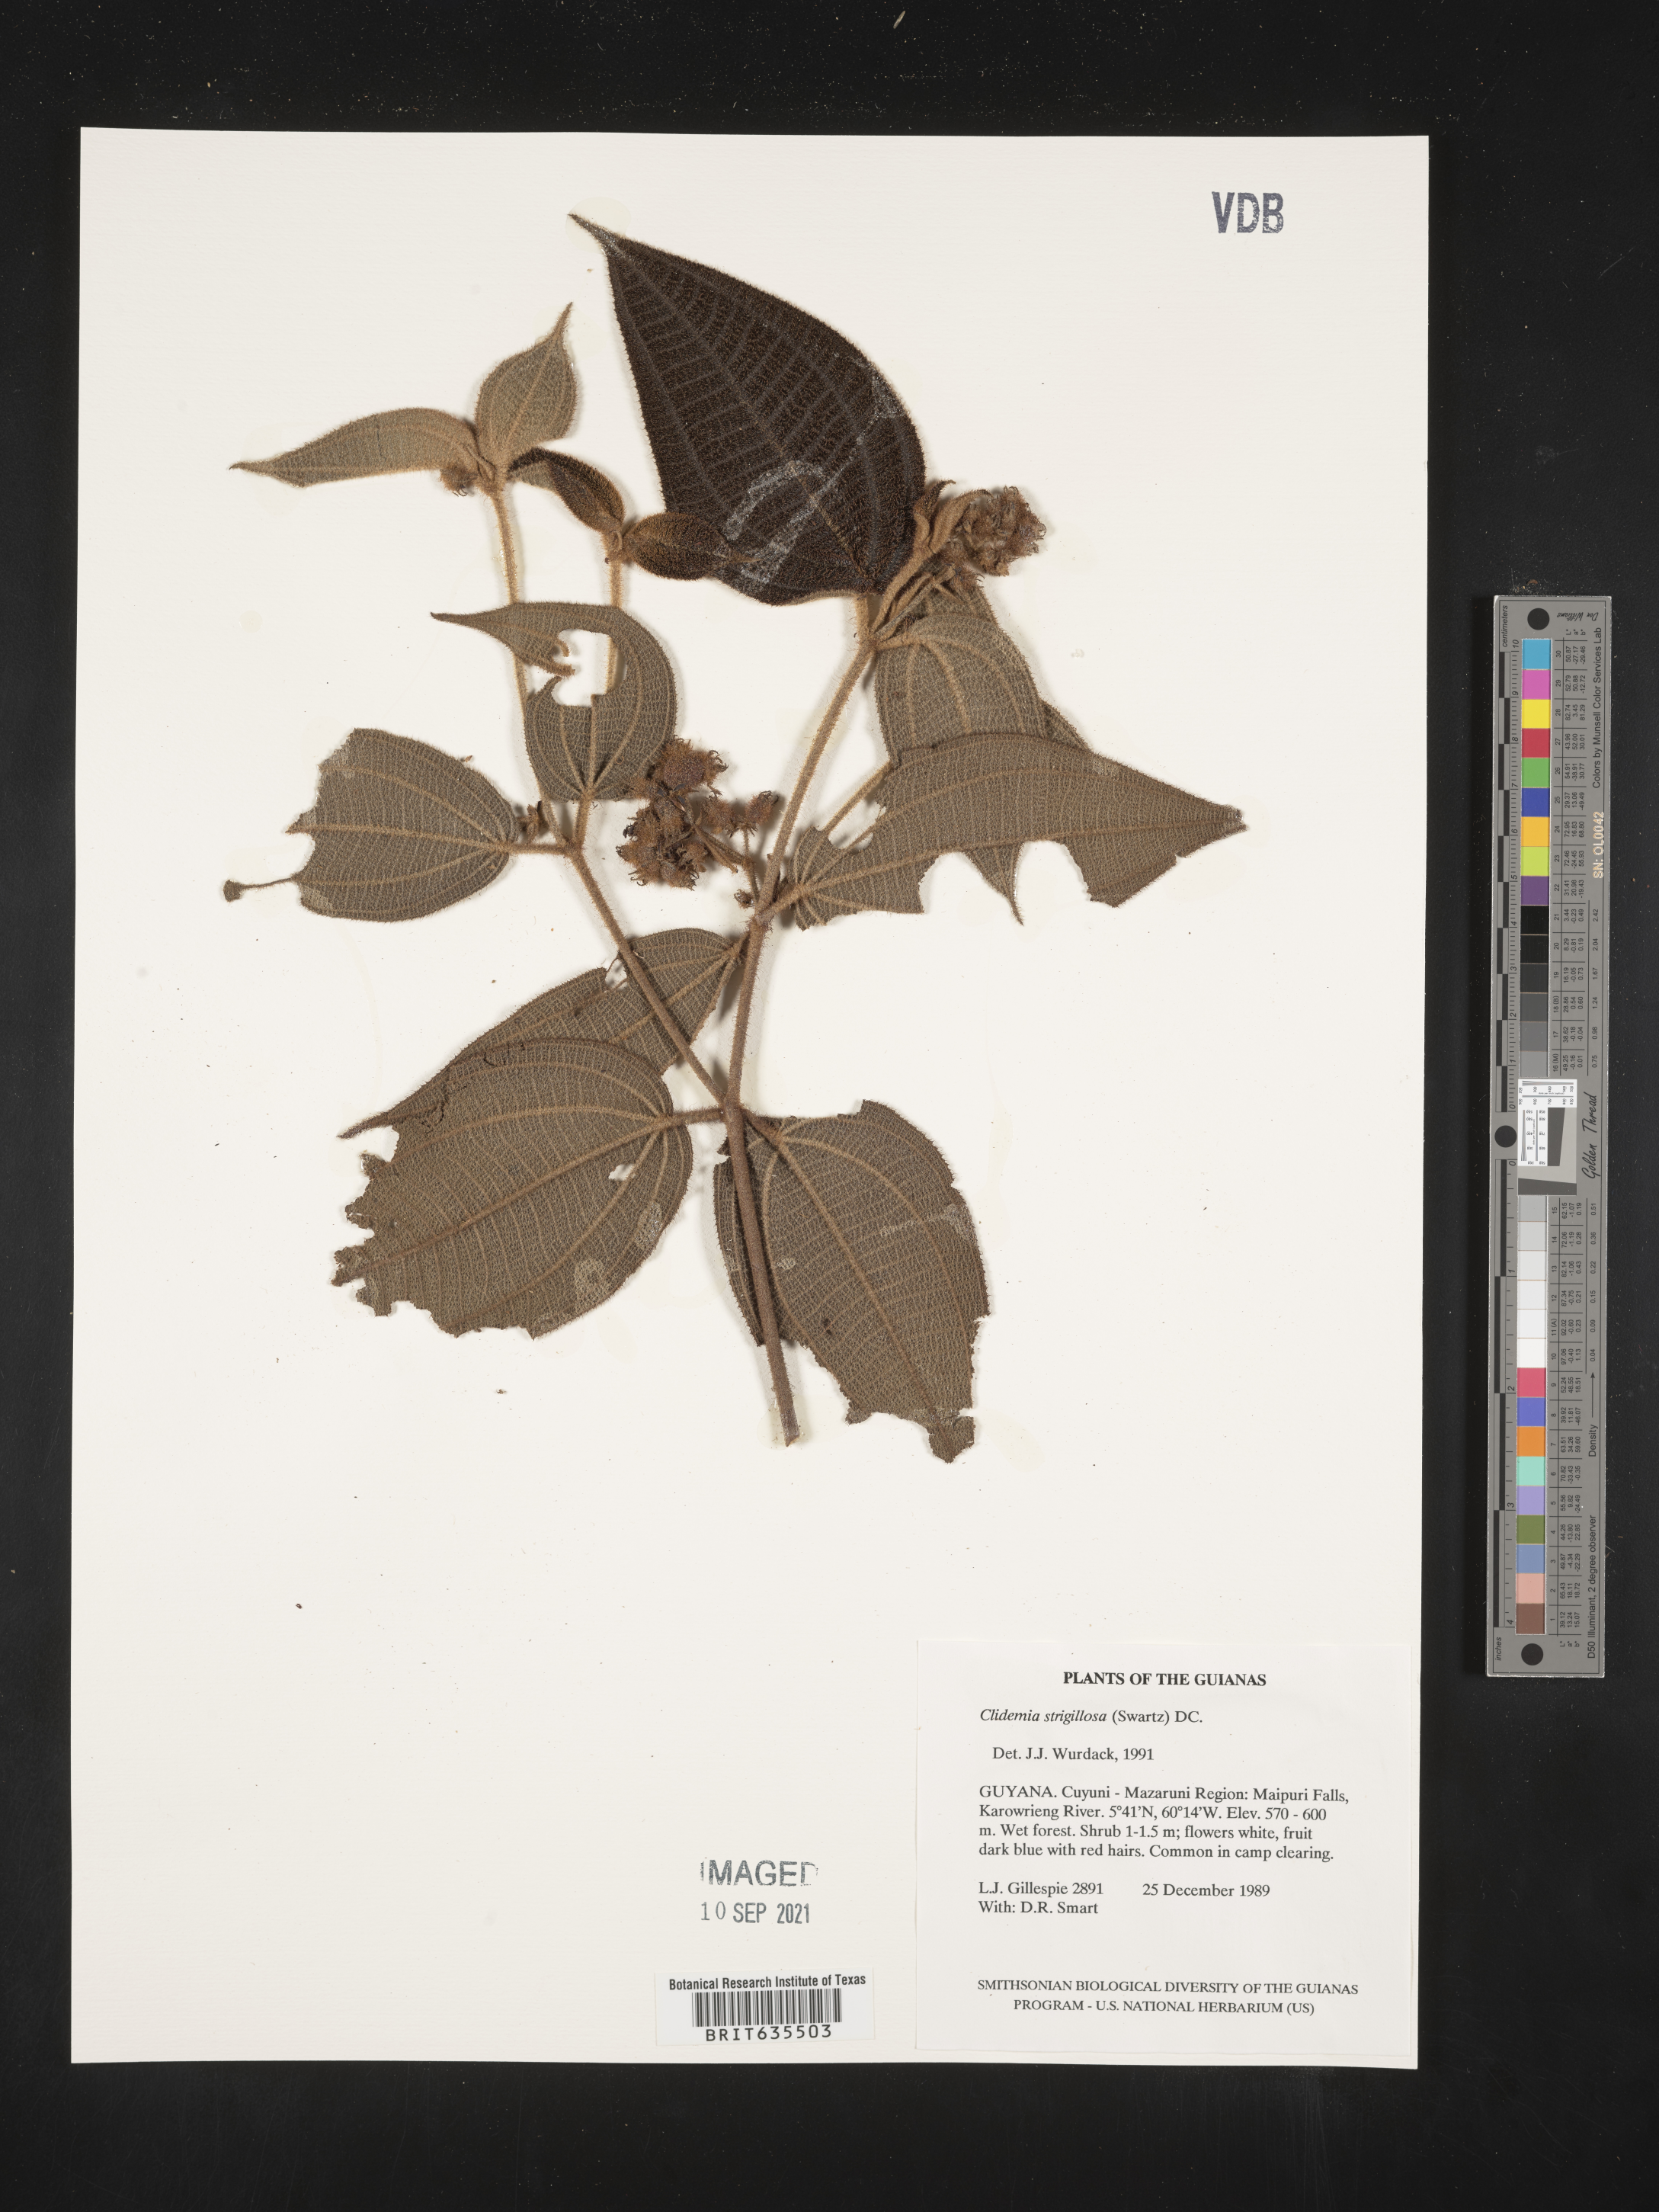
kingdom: Plantae
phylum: Tracheophyta
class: Magnoliopsida
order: Myrtales
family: Melastomataceae
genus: Miconia
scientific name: Miconia
